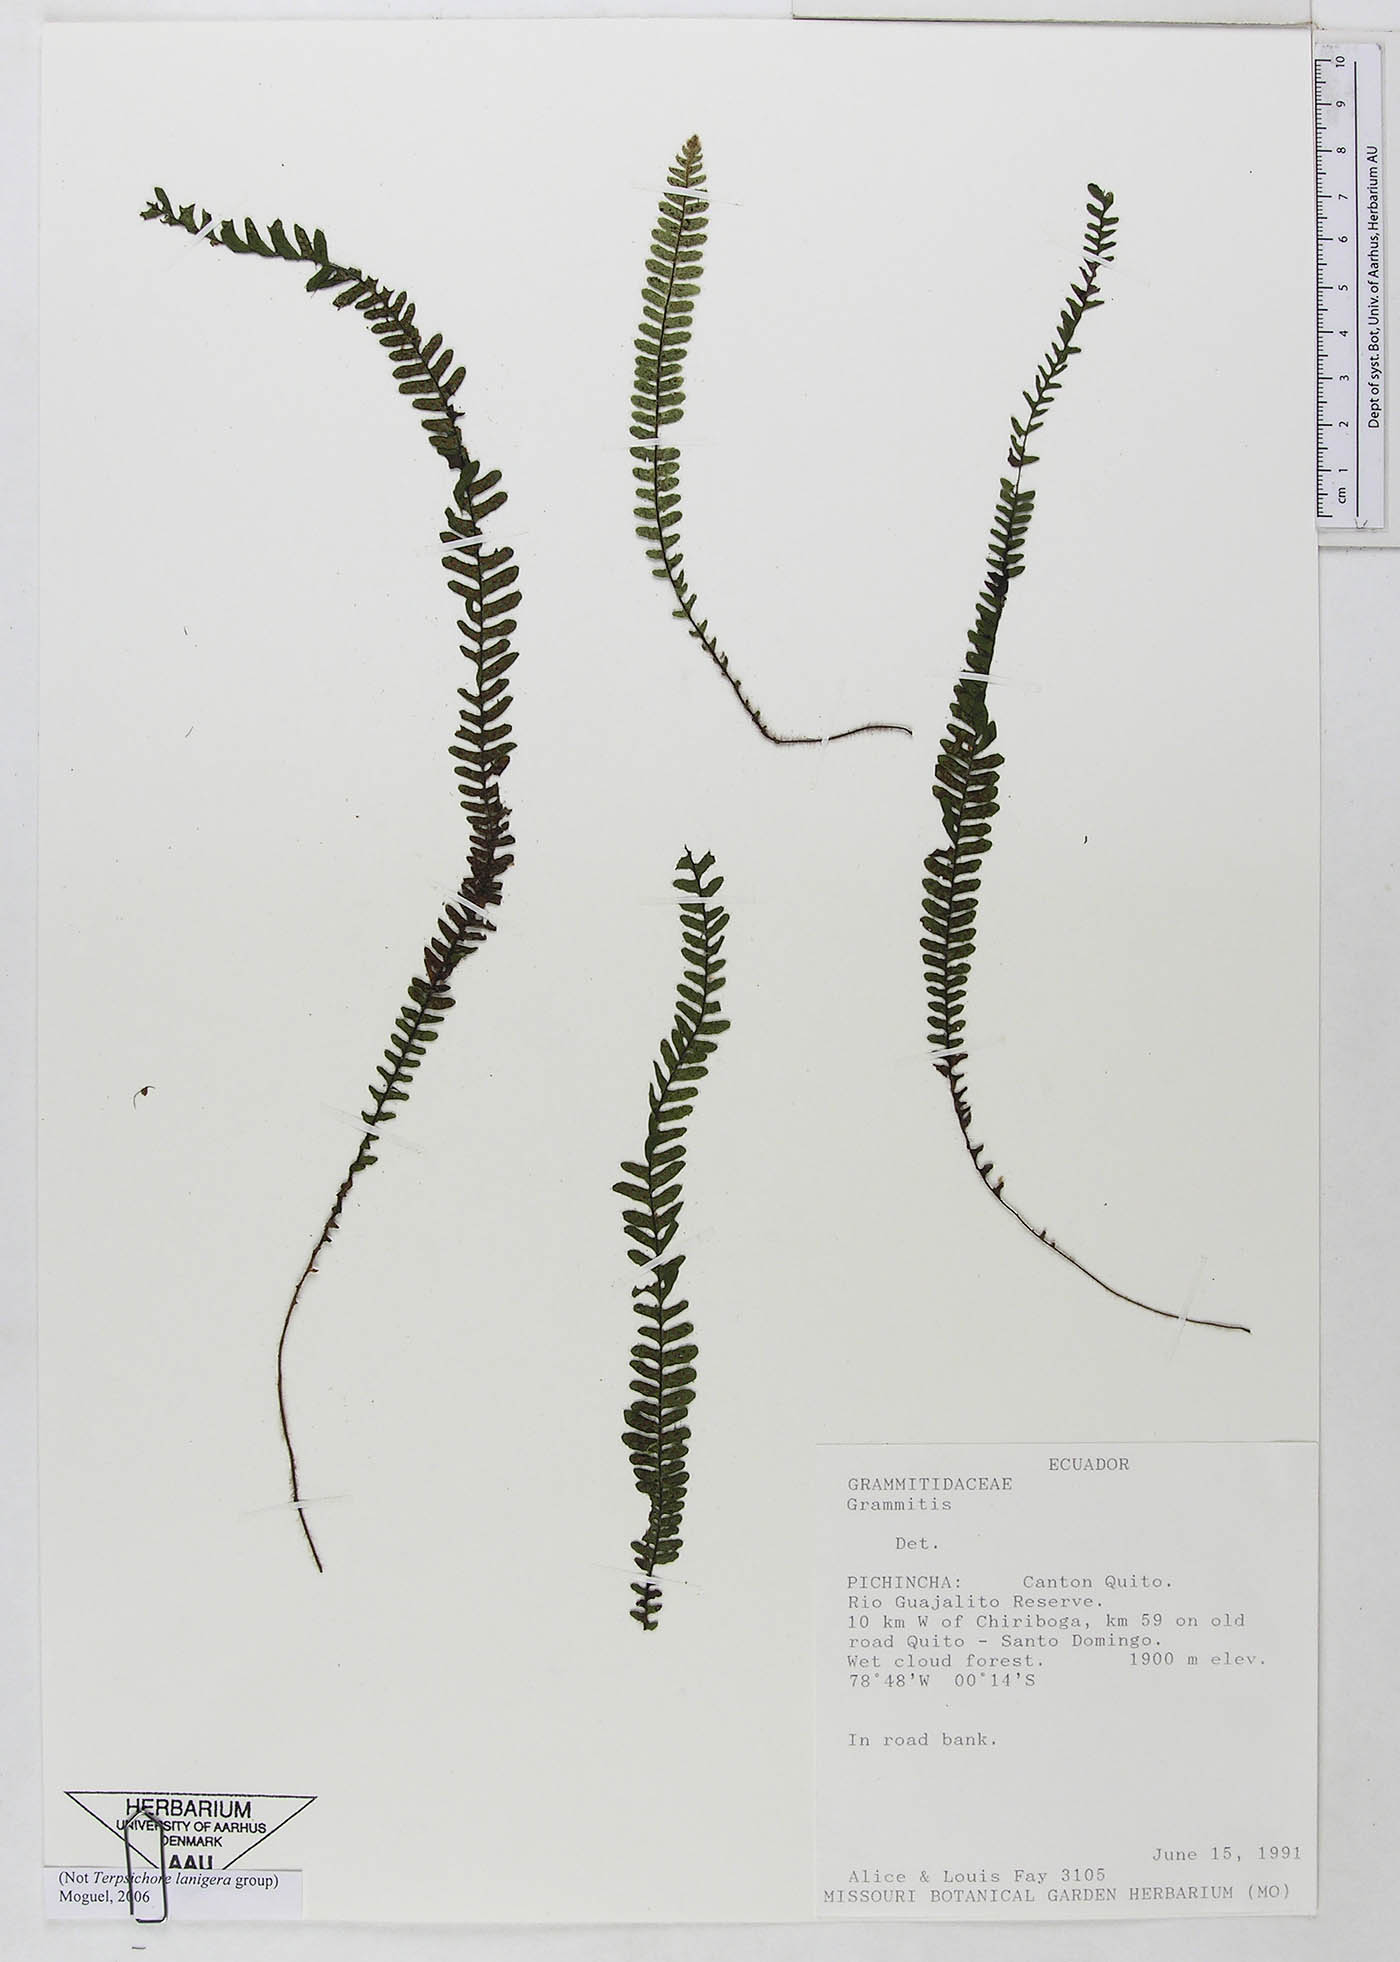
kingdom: Plantae
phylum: Tracheophyta
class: Polypodiopsida
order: Polypodiales
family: Polypodiaceae
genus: Ascogrammitis
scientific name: Ascogrammitis pichinchensis
